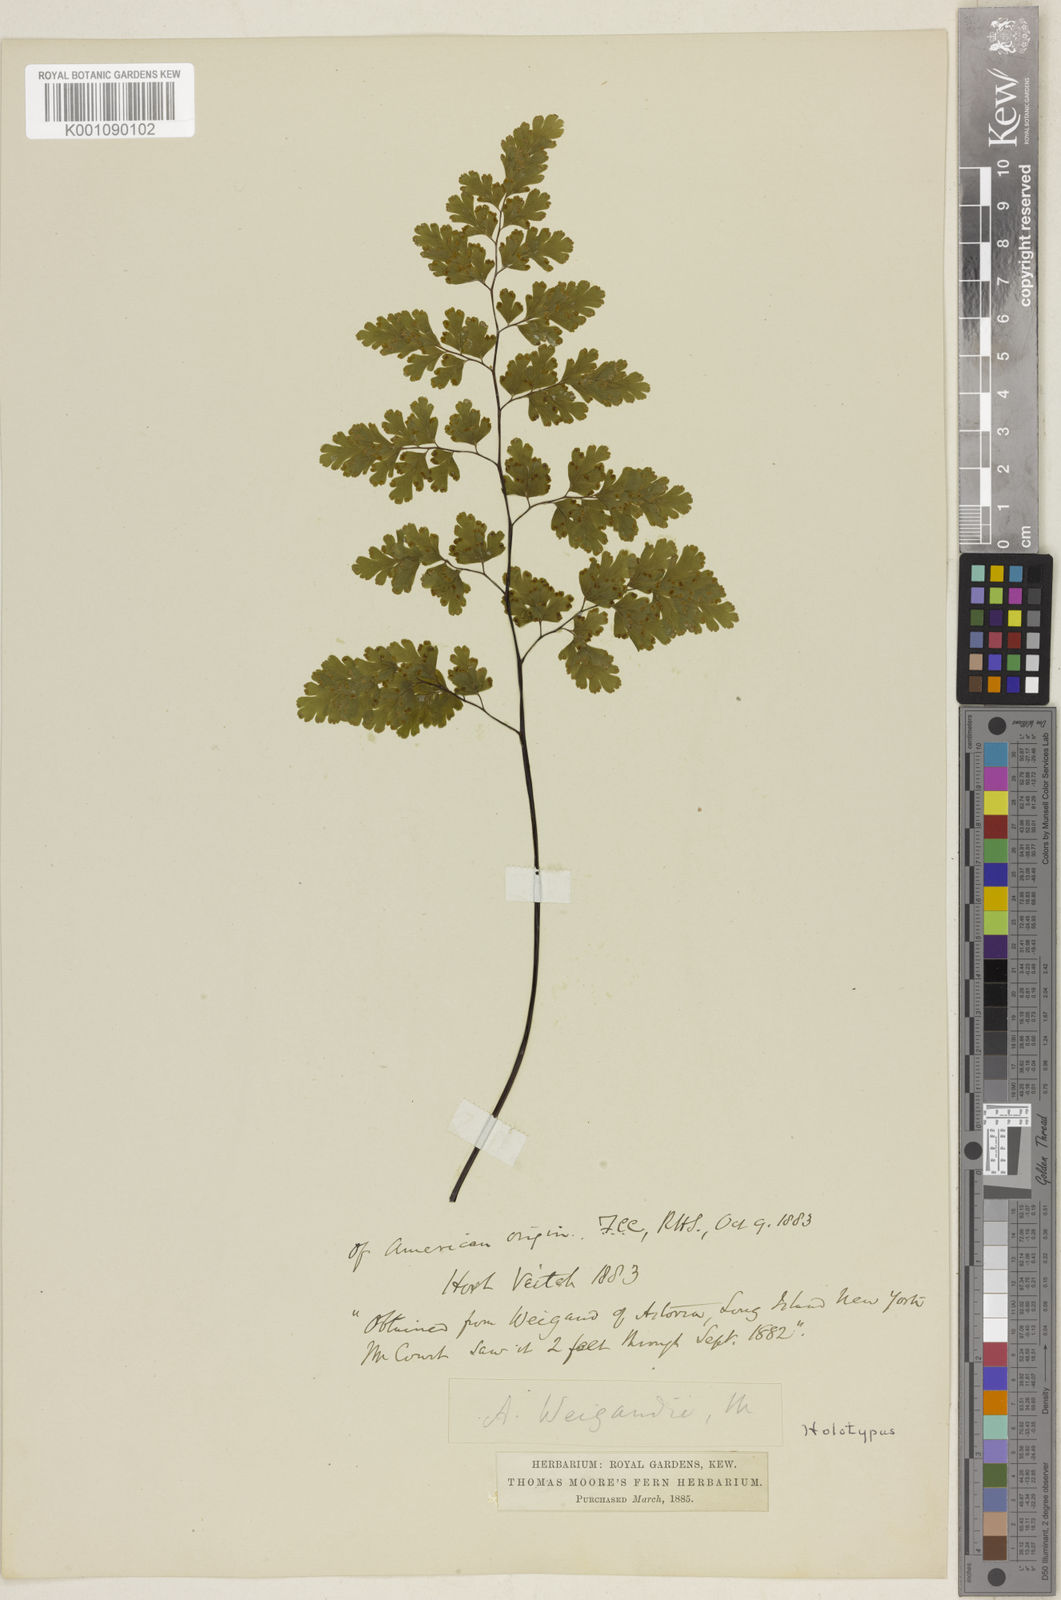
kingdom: Plantae
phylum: Tracheophyta
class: Polypodiopsida
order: Polypodiales
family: Pteridaceae
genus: Adiantum
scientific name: Adiantum raddianum
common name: Delta maidenhair fern
